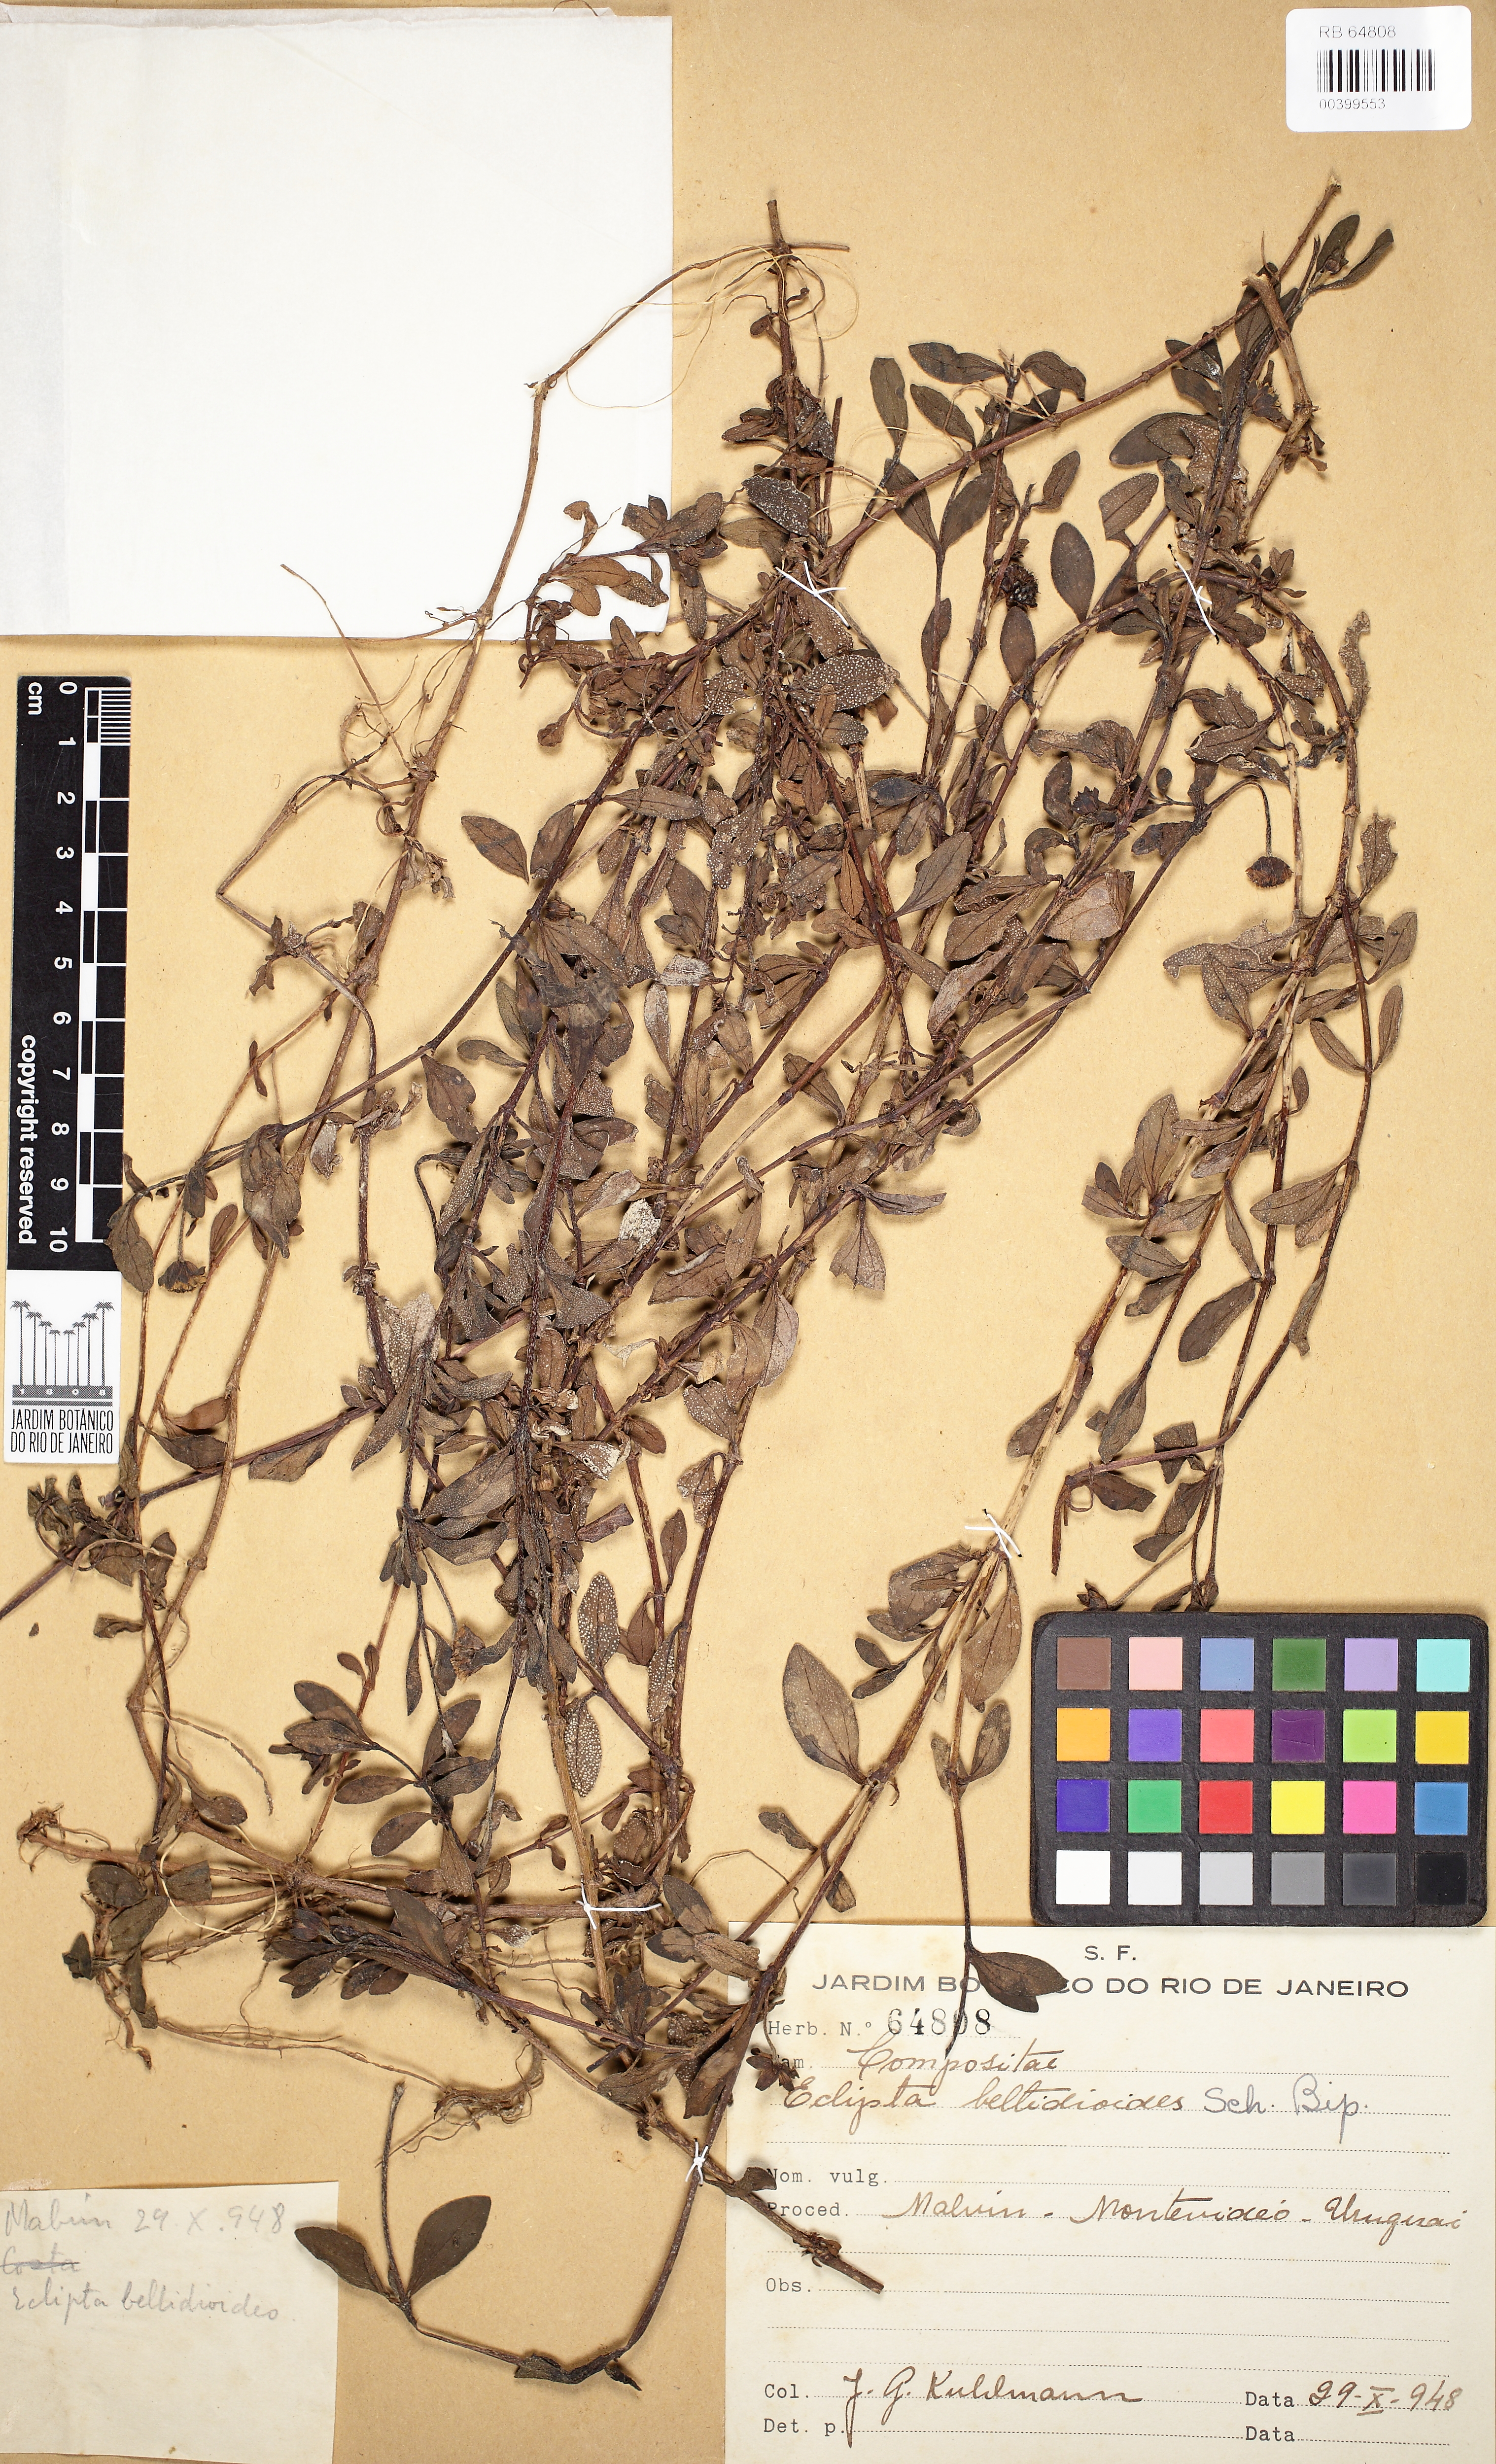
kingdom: Plantae
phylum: Tracheophyta
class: Magnoliopsida
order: Asterales
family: Asteraceae
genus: Eclipta
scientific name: Eclipta elliptica
